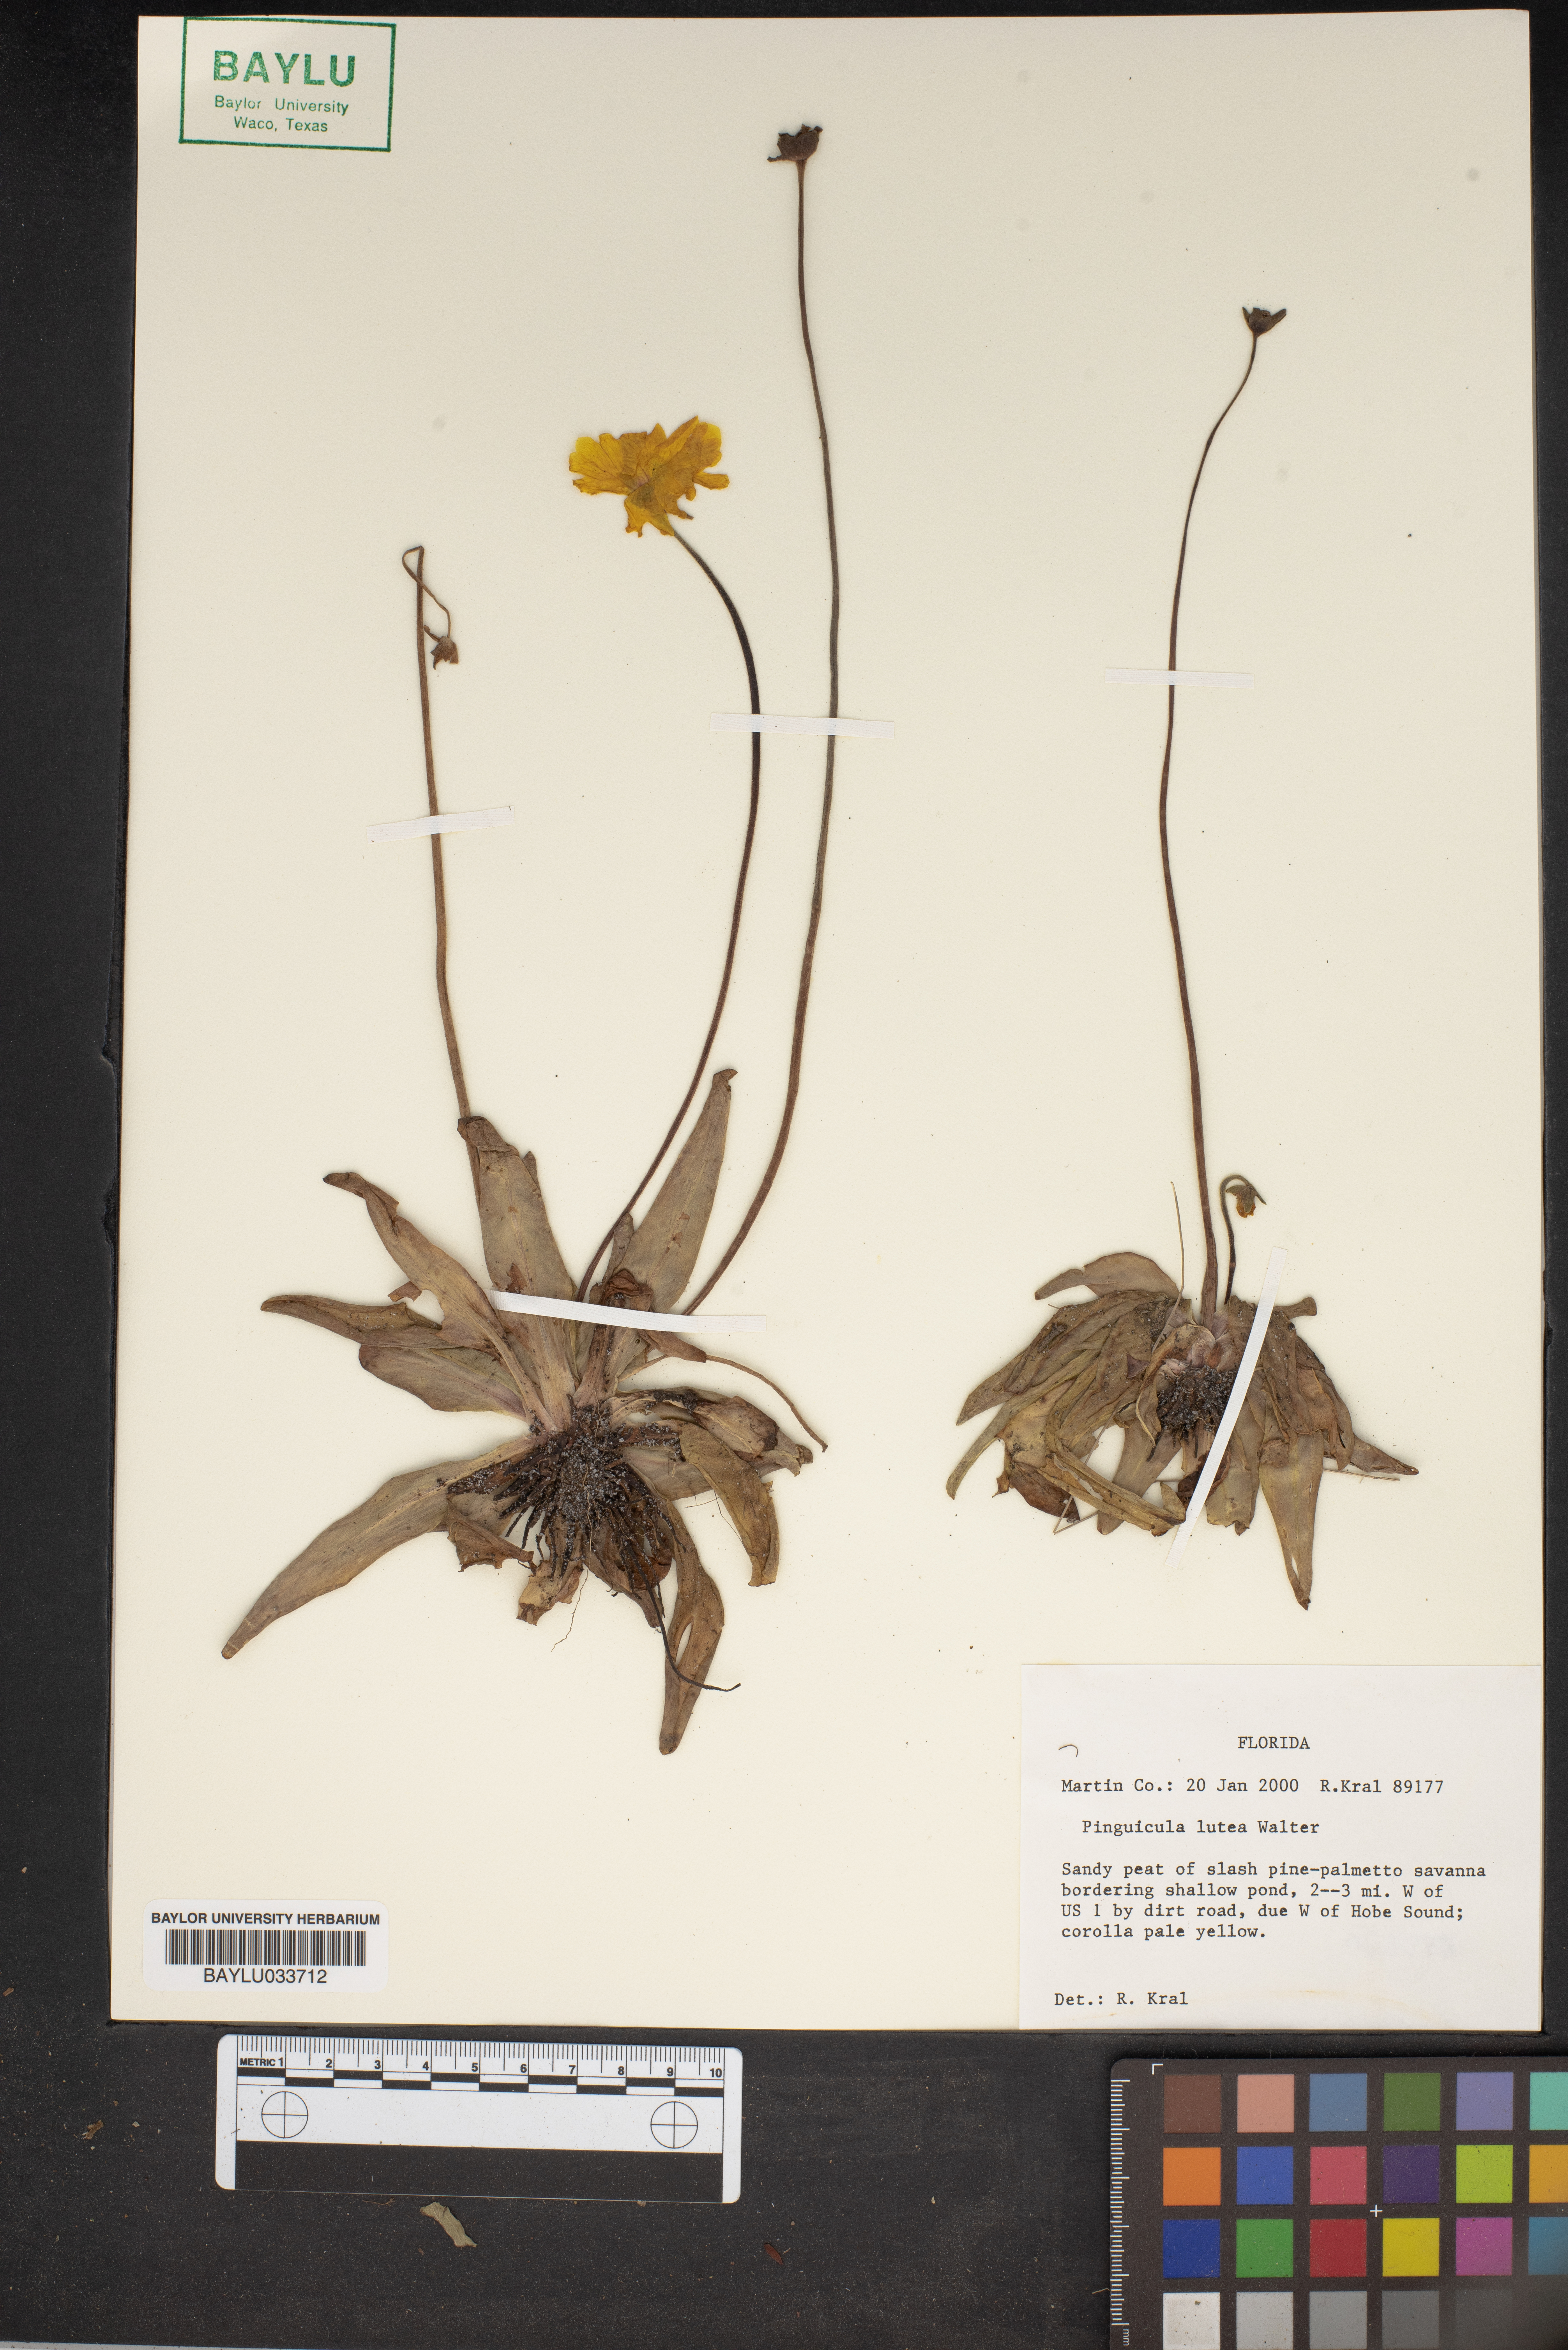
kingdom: Plantae
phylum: Tracheophyta
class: Magnoliopsida
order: Lamiales
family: Lentibulariaceae
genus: Pinguicula
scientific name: Pinguicula lutea
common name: Yellow butterwort
